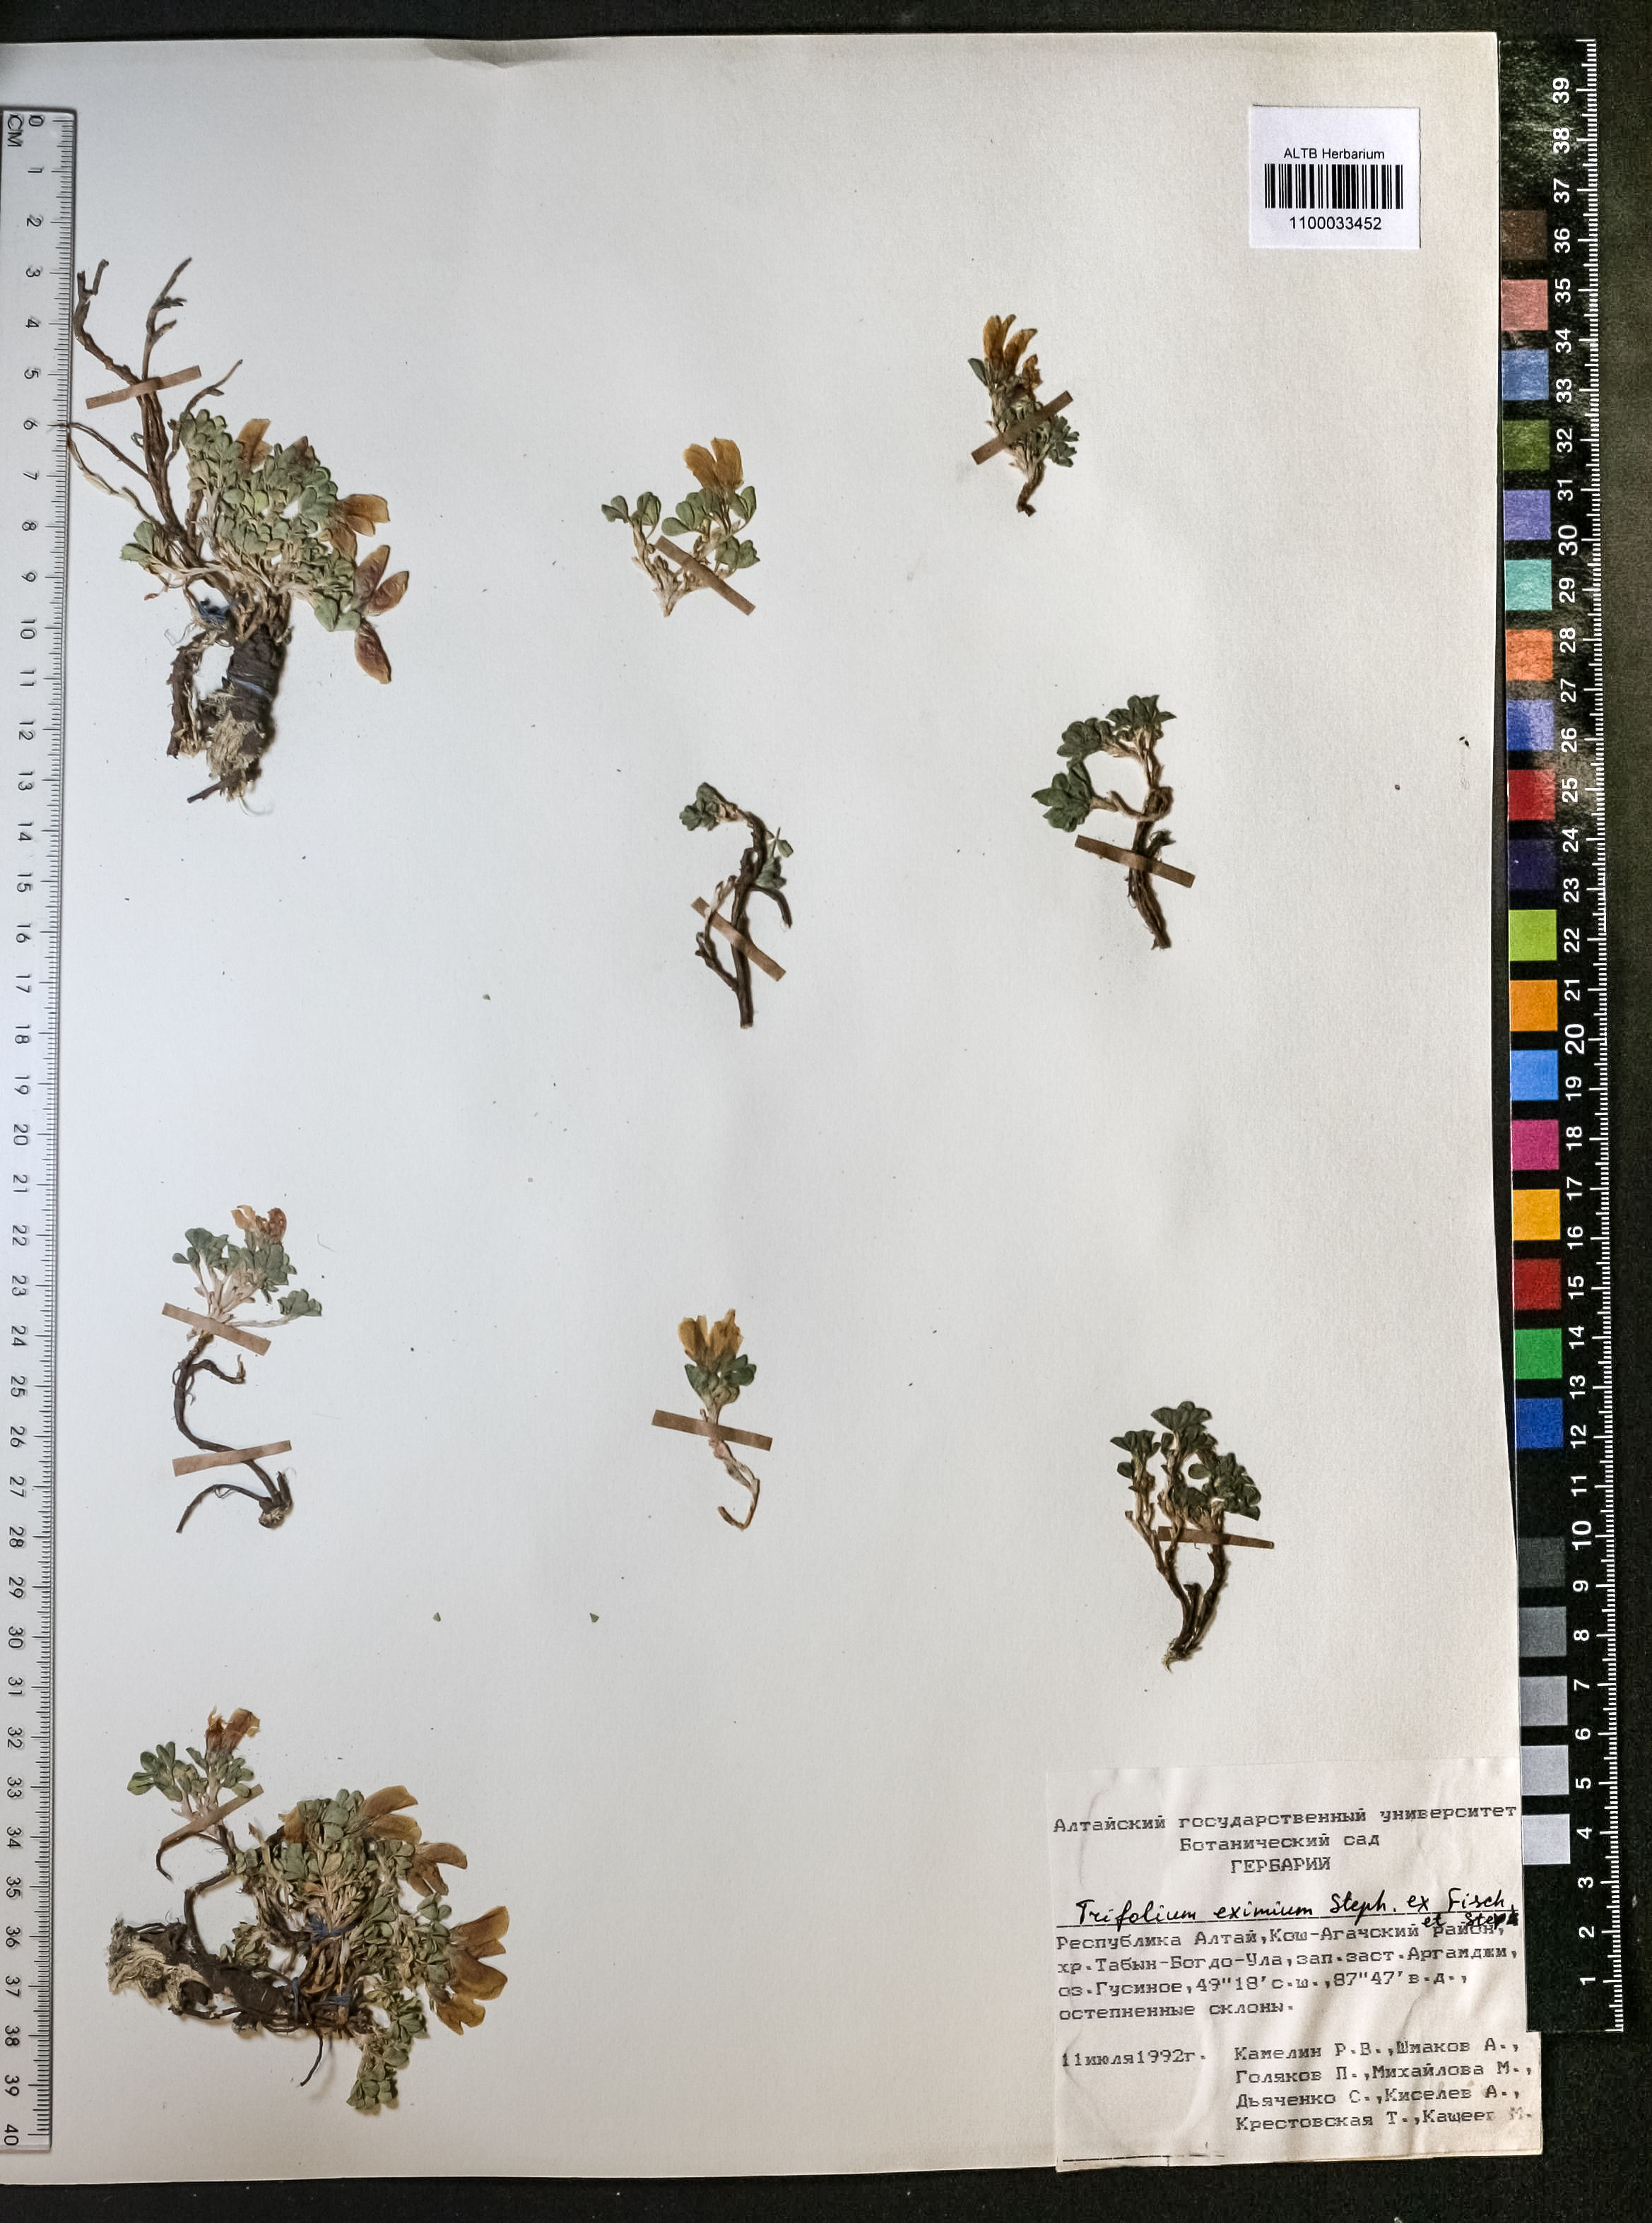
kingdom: Plantae
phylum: Tracheophyta
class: Magnoliopsida
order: Fabales
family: Fabaceae
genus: Trifolium
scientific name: Trifolium eximium
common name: Excellent clover
